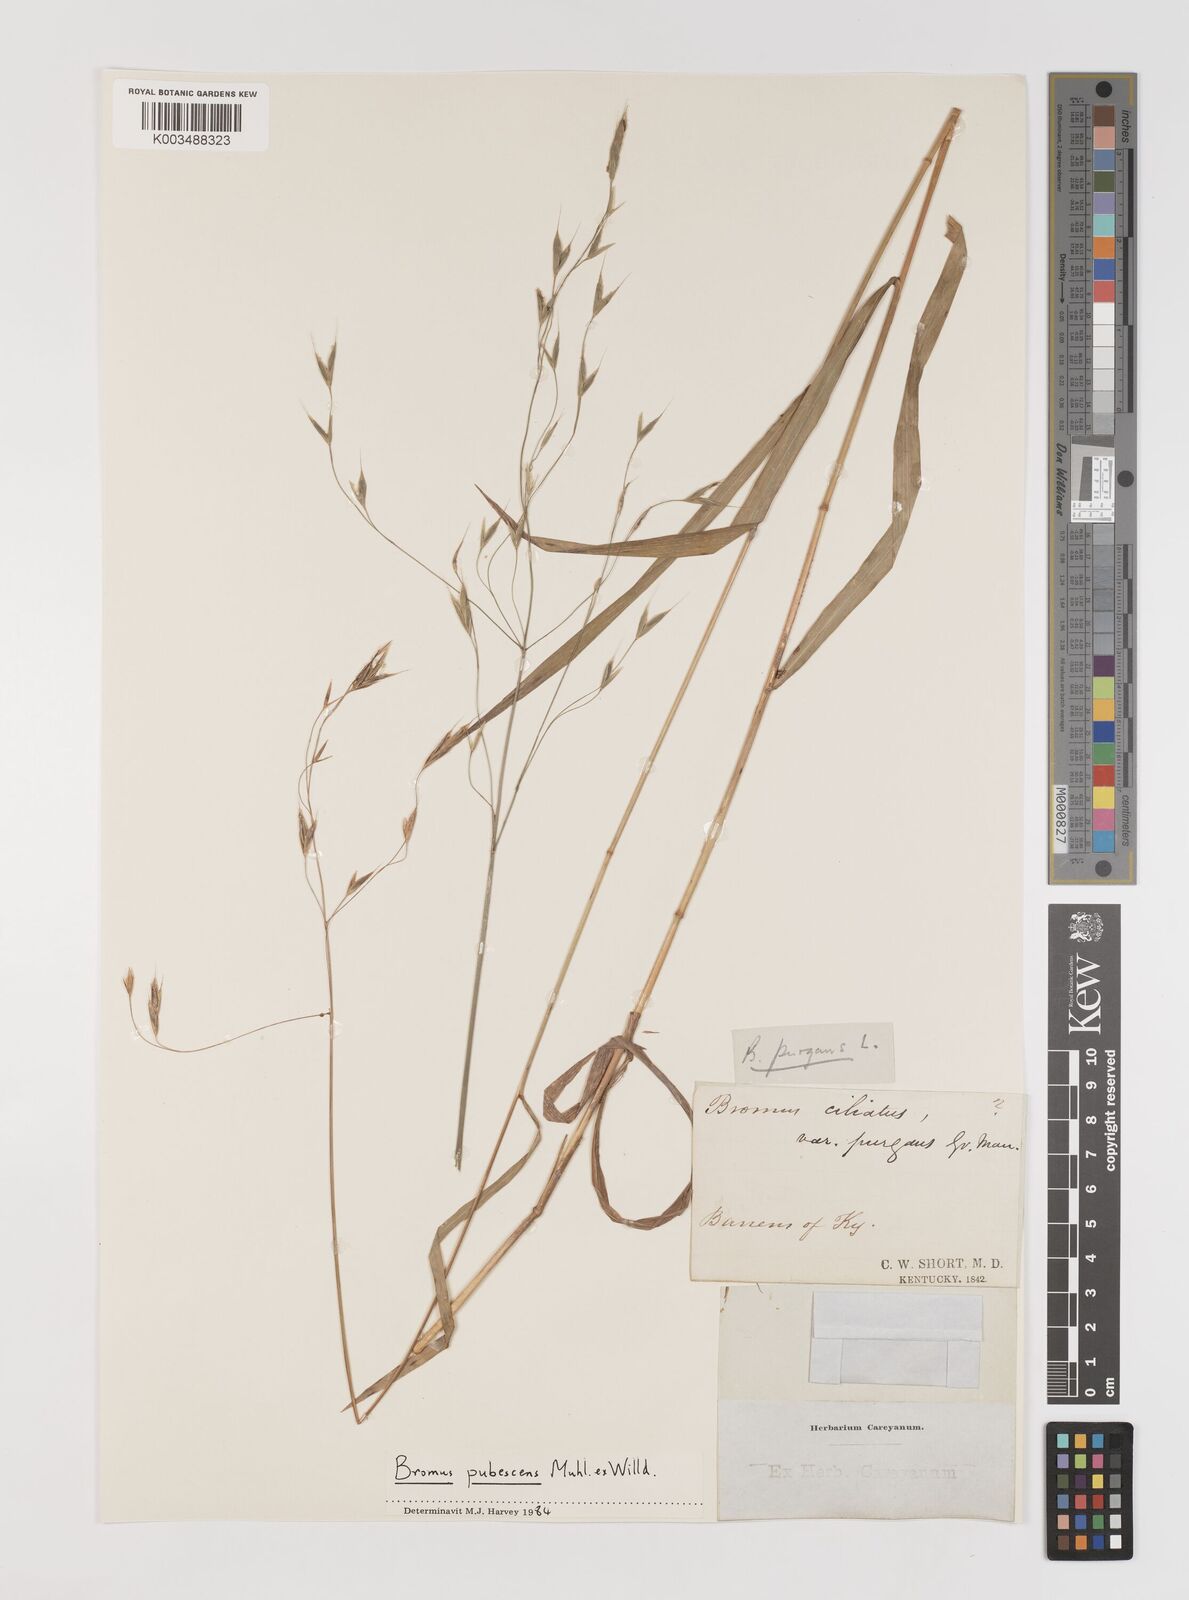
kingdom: Plantae
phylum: Tracheophyta
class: Liliopsida
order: Poales
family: Poaceae
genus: Bromus
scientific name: Bromus pubescens
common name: Hairy wood brome grass
